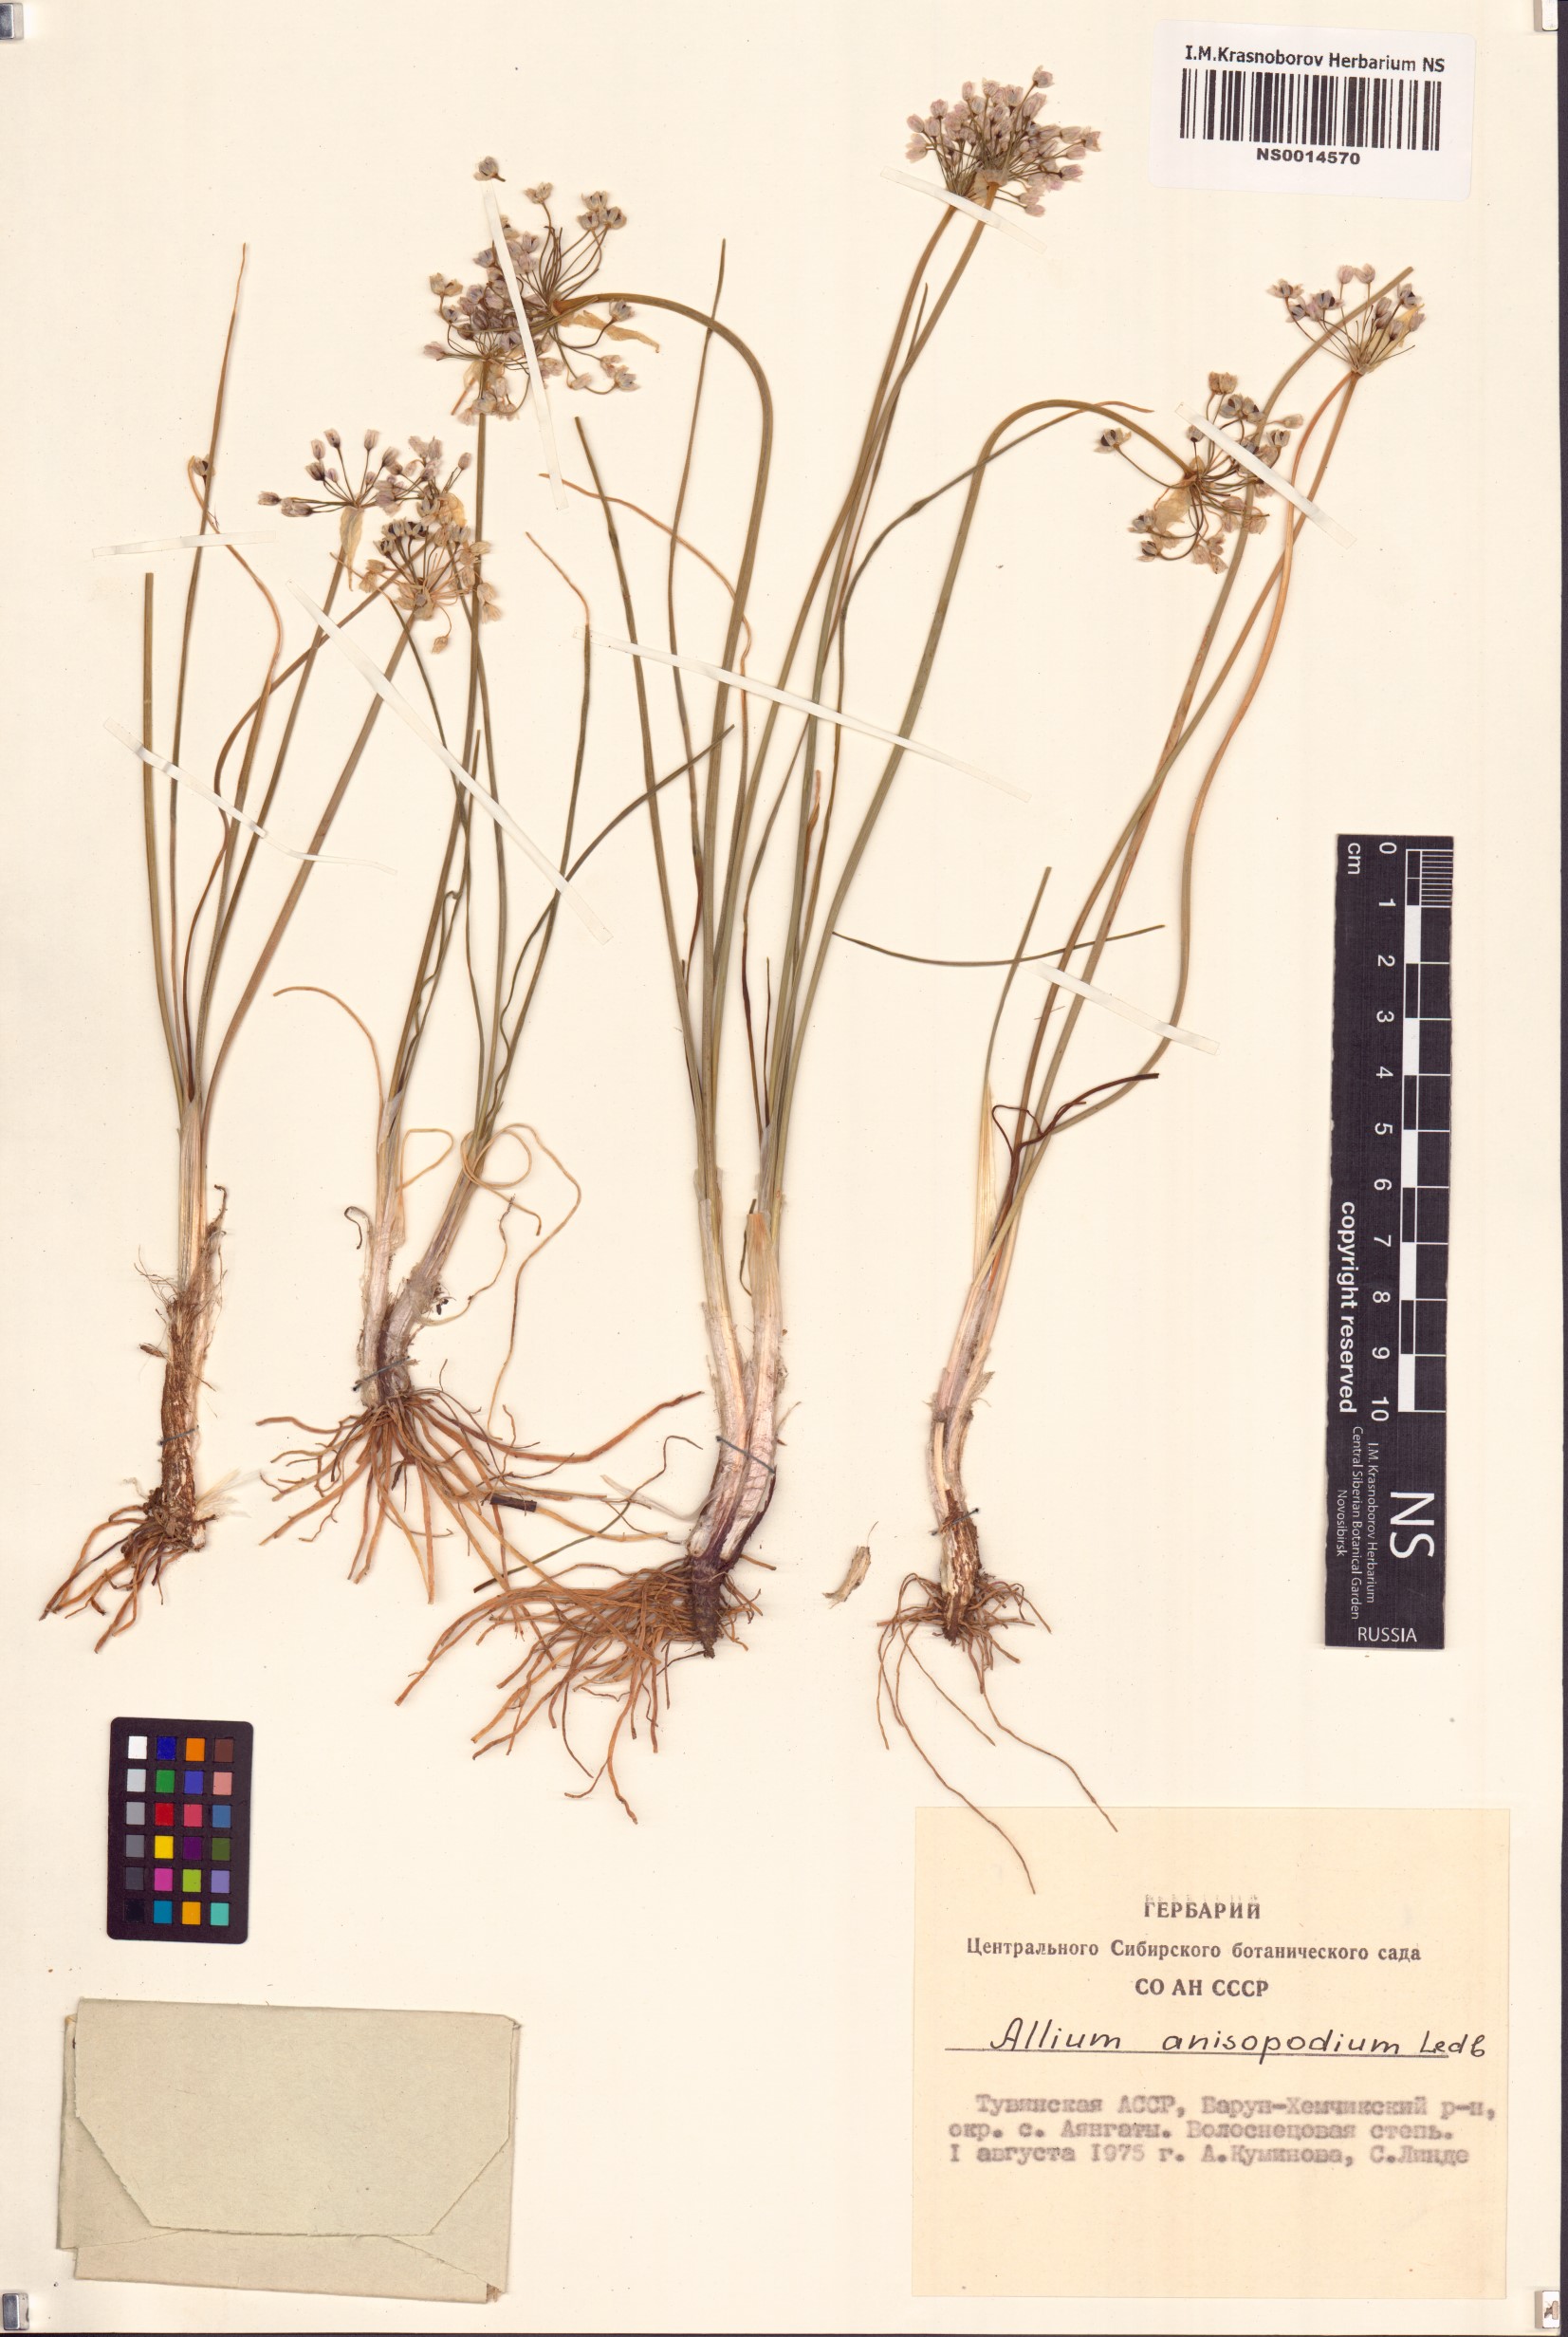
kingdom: Plantae
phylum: Tracheophyta
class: Liliopsida
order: Asparagales
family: Amaryllidaceae
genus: Allium
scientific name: Allium anisopodium
